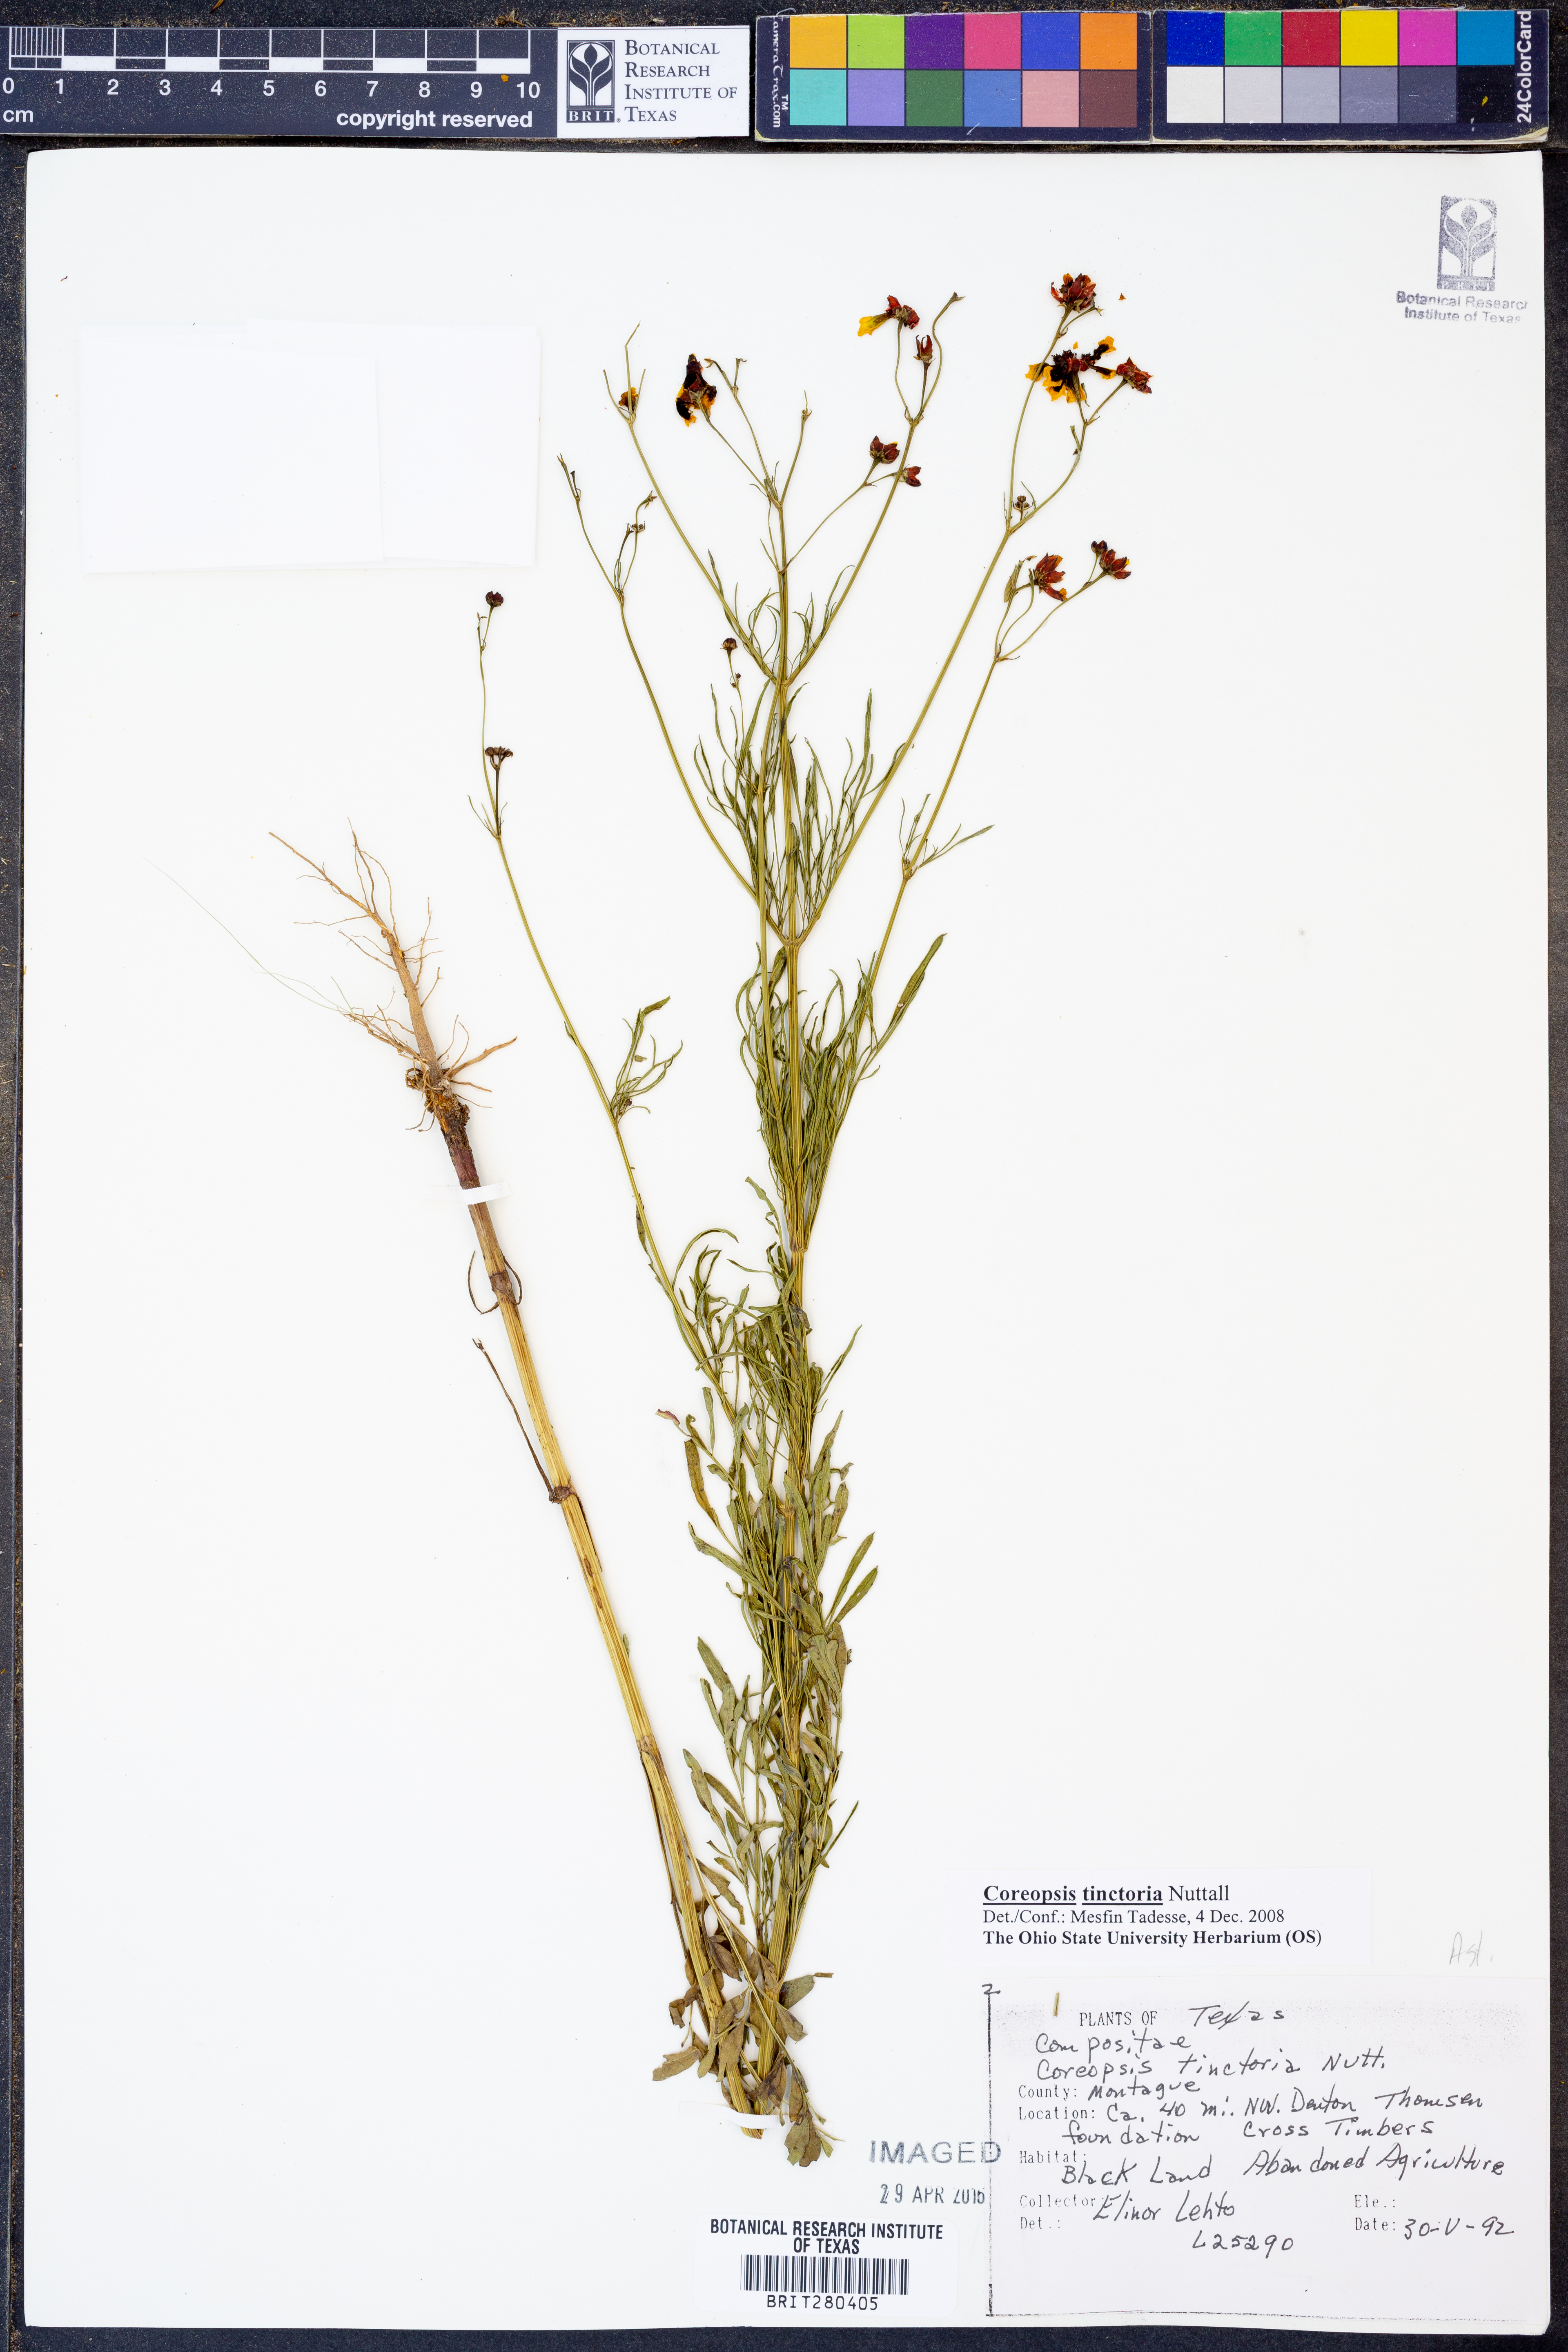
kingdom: Plantae
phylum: Tracheophyta
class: Magnoliopsida
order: Asterales
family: Asteraceae
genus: Coreopsis
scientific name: Coreopsis tinctoria
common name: Garden tickseed
